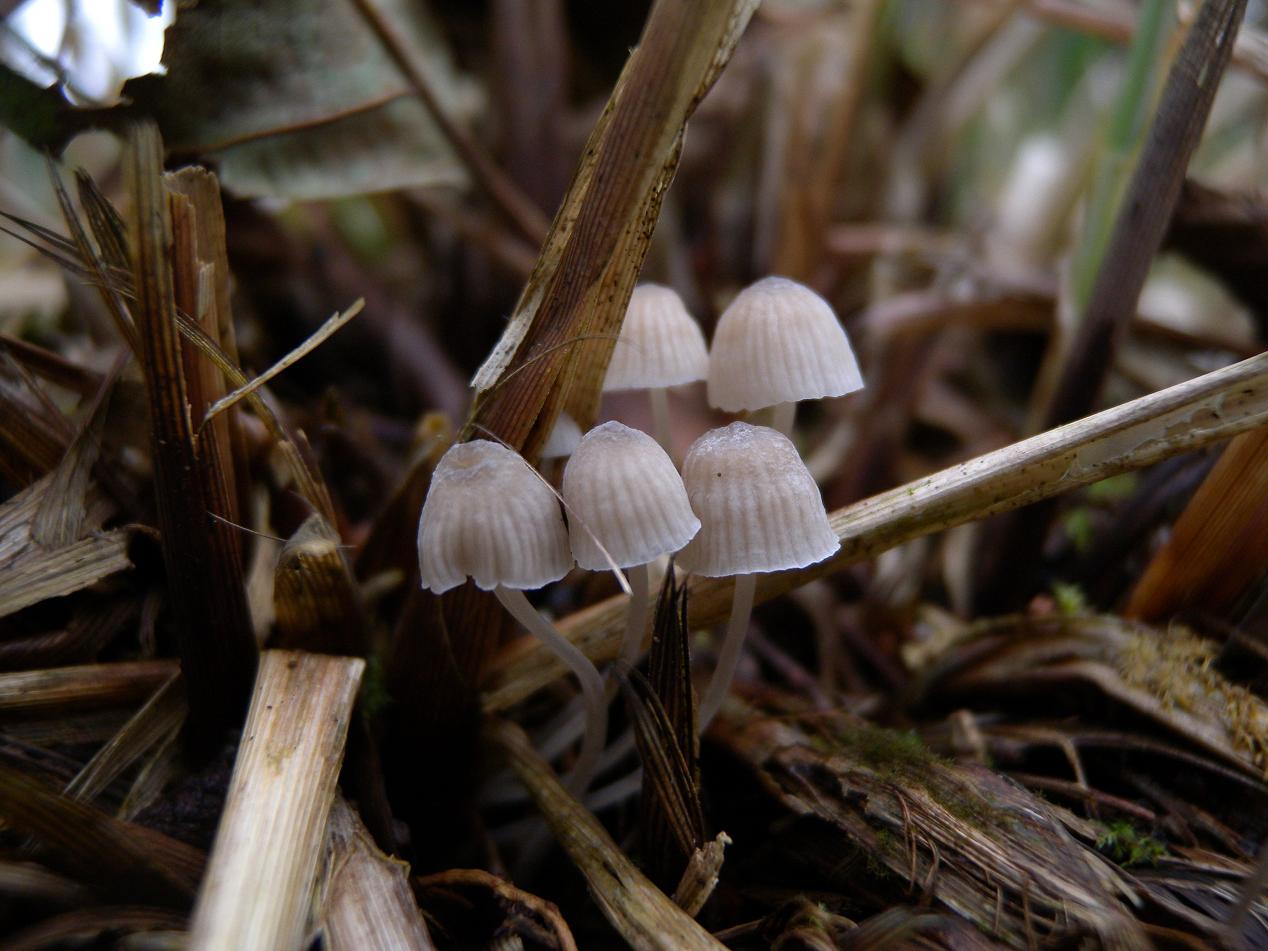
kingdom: Fungi
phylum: Basidiomycota
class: Agaricomycetes
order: Agaricales
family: Mycenaceae
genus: Mycena
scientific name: Mycena cinerella
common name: mel-huesvamp
